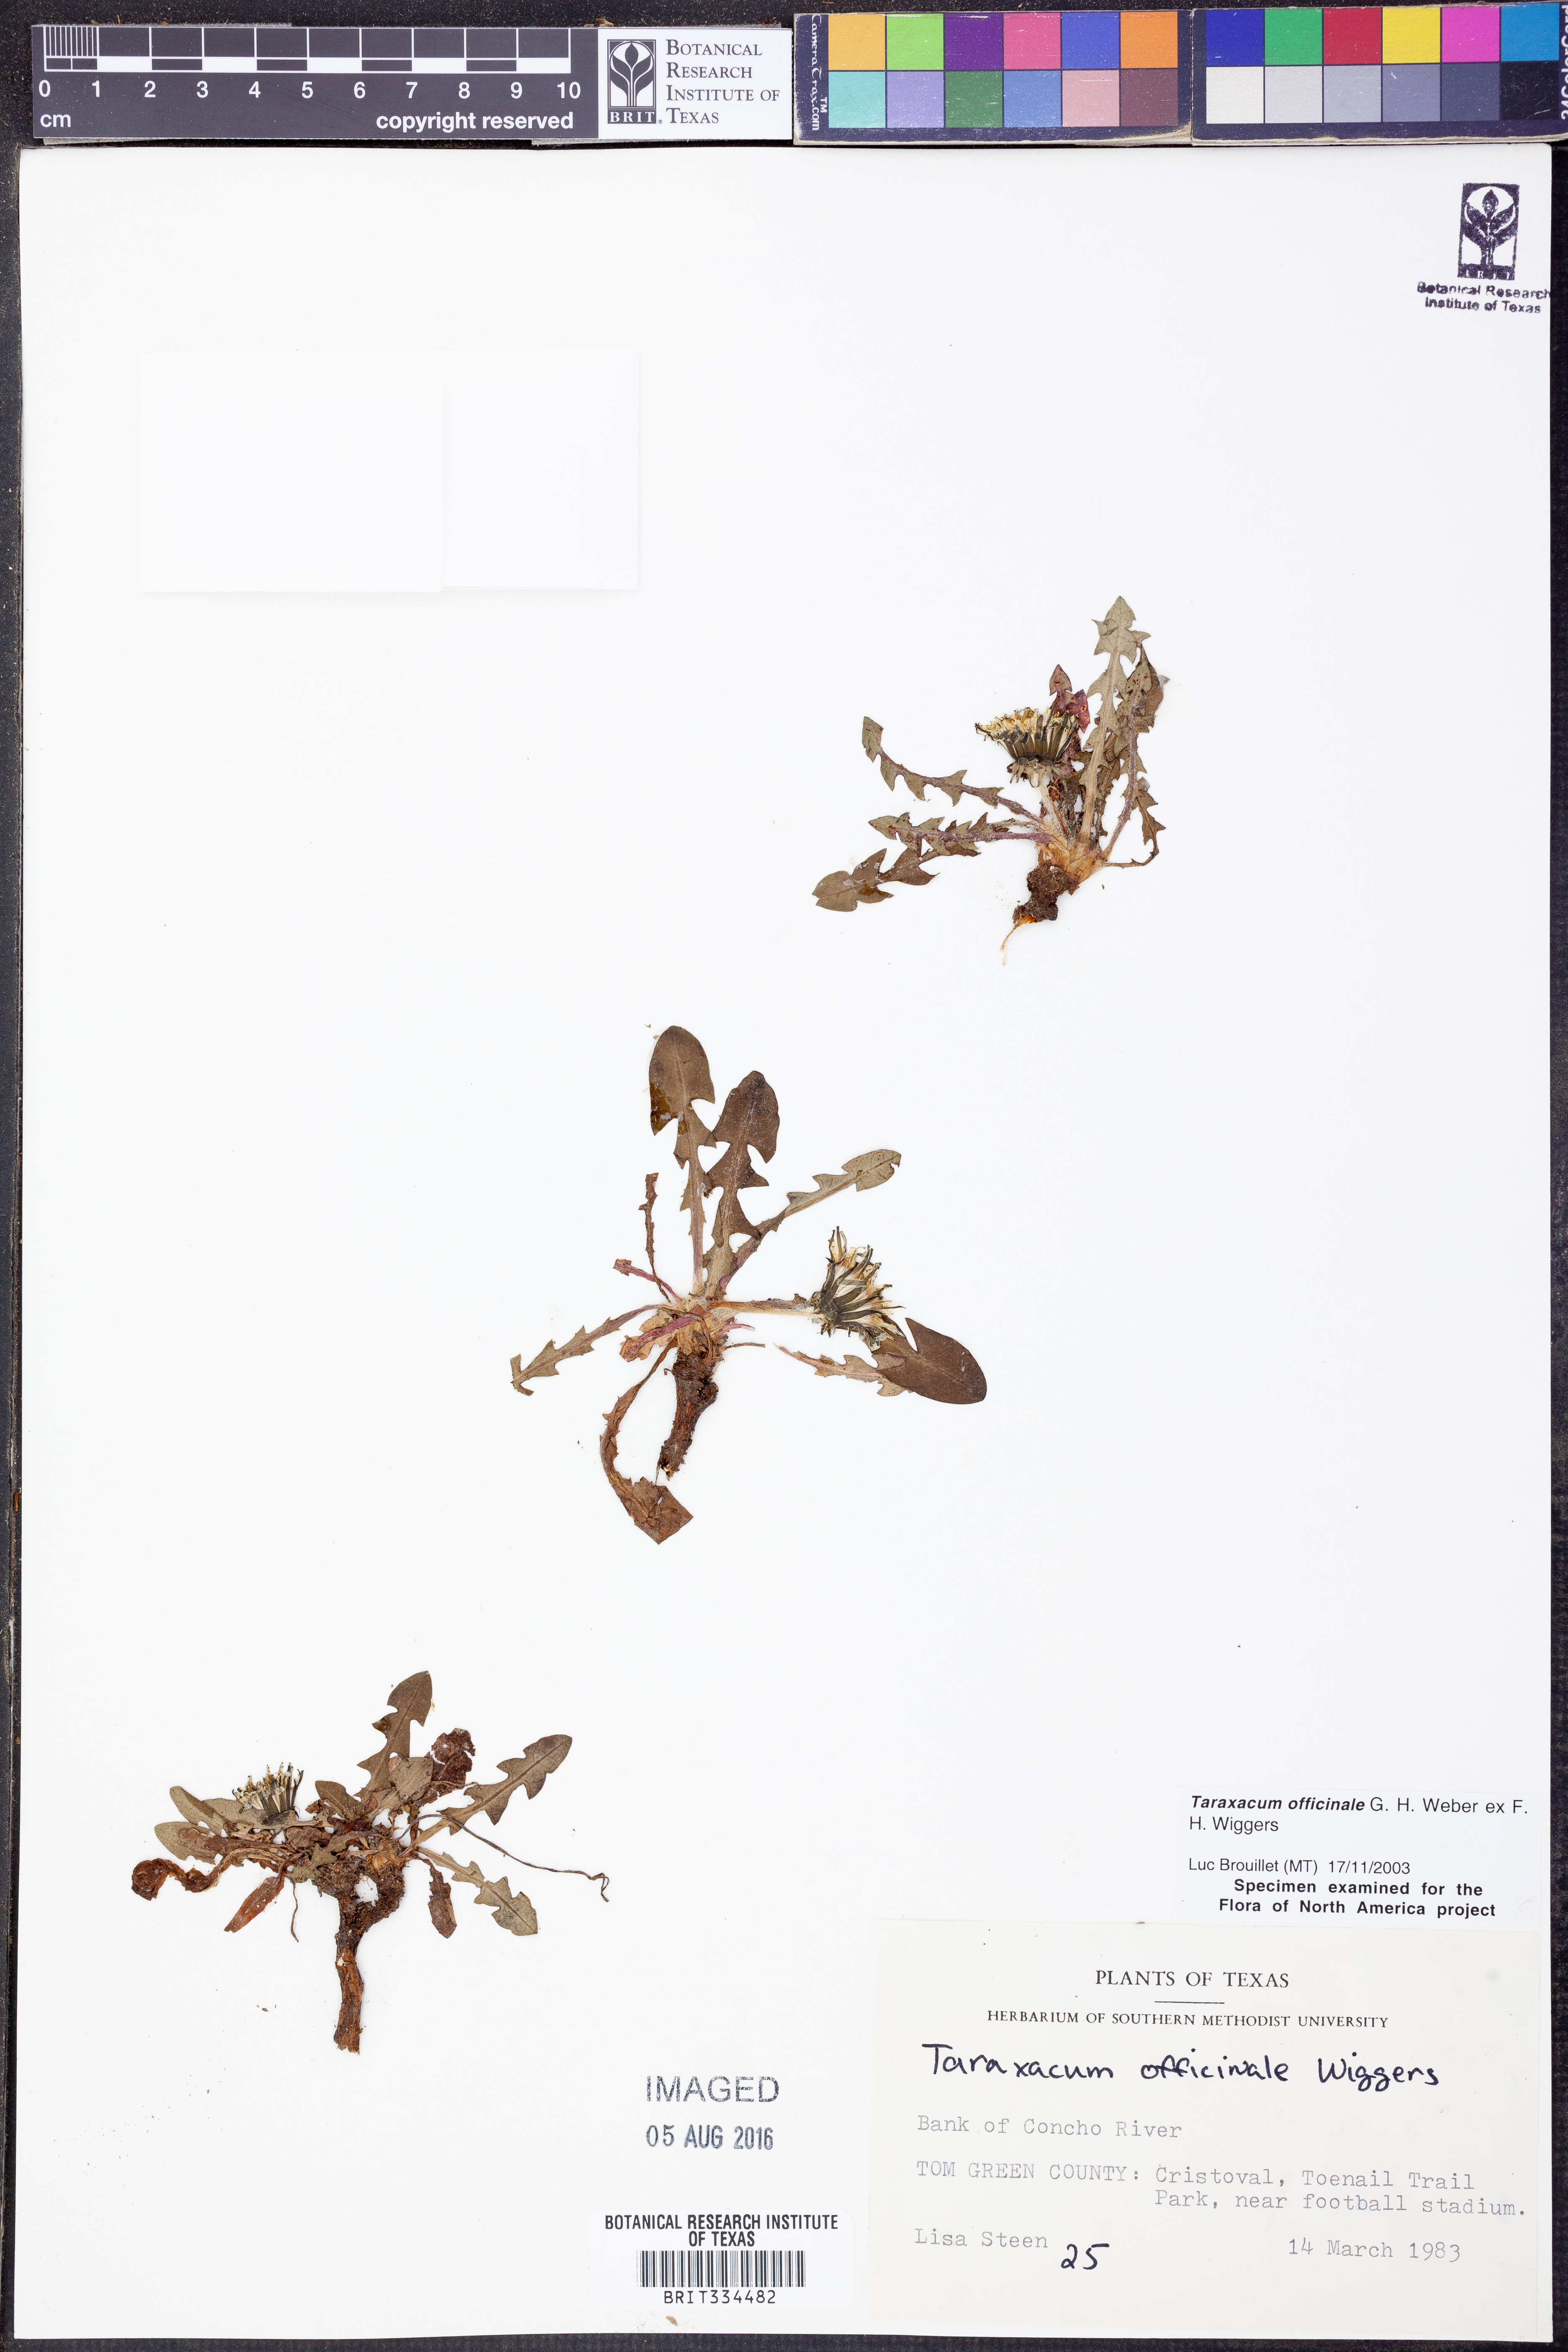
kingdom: Plantae
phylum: Tracheophyta
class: Magnoliopsida
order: Asterales
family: Asteraceae
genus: Taraxacum
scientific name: Taraxacum officinale
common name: Common dandelion
